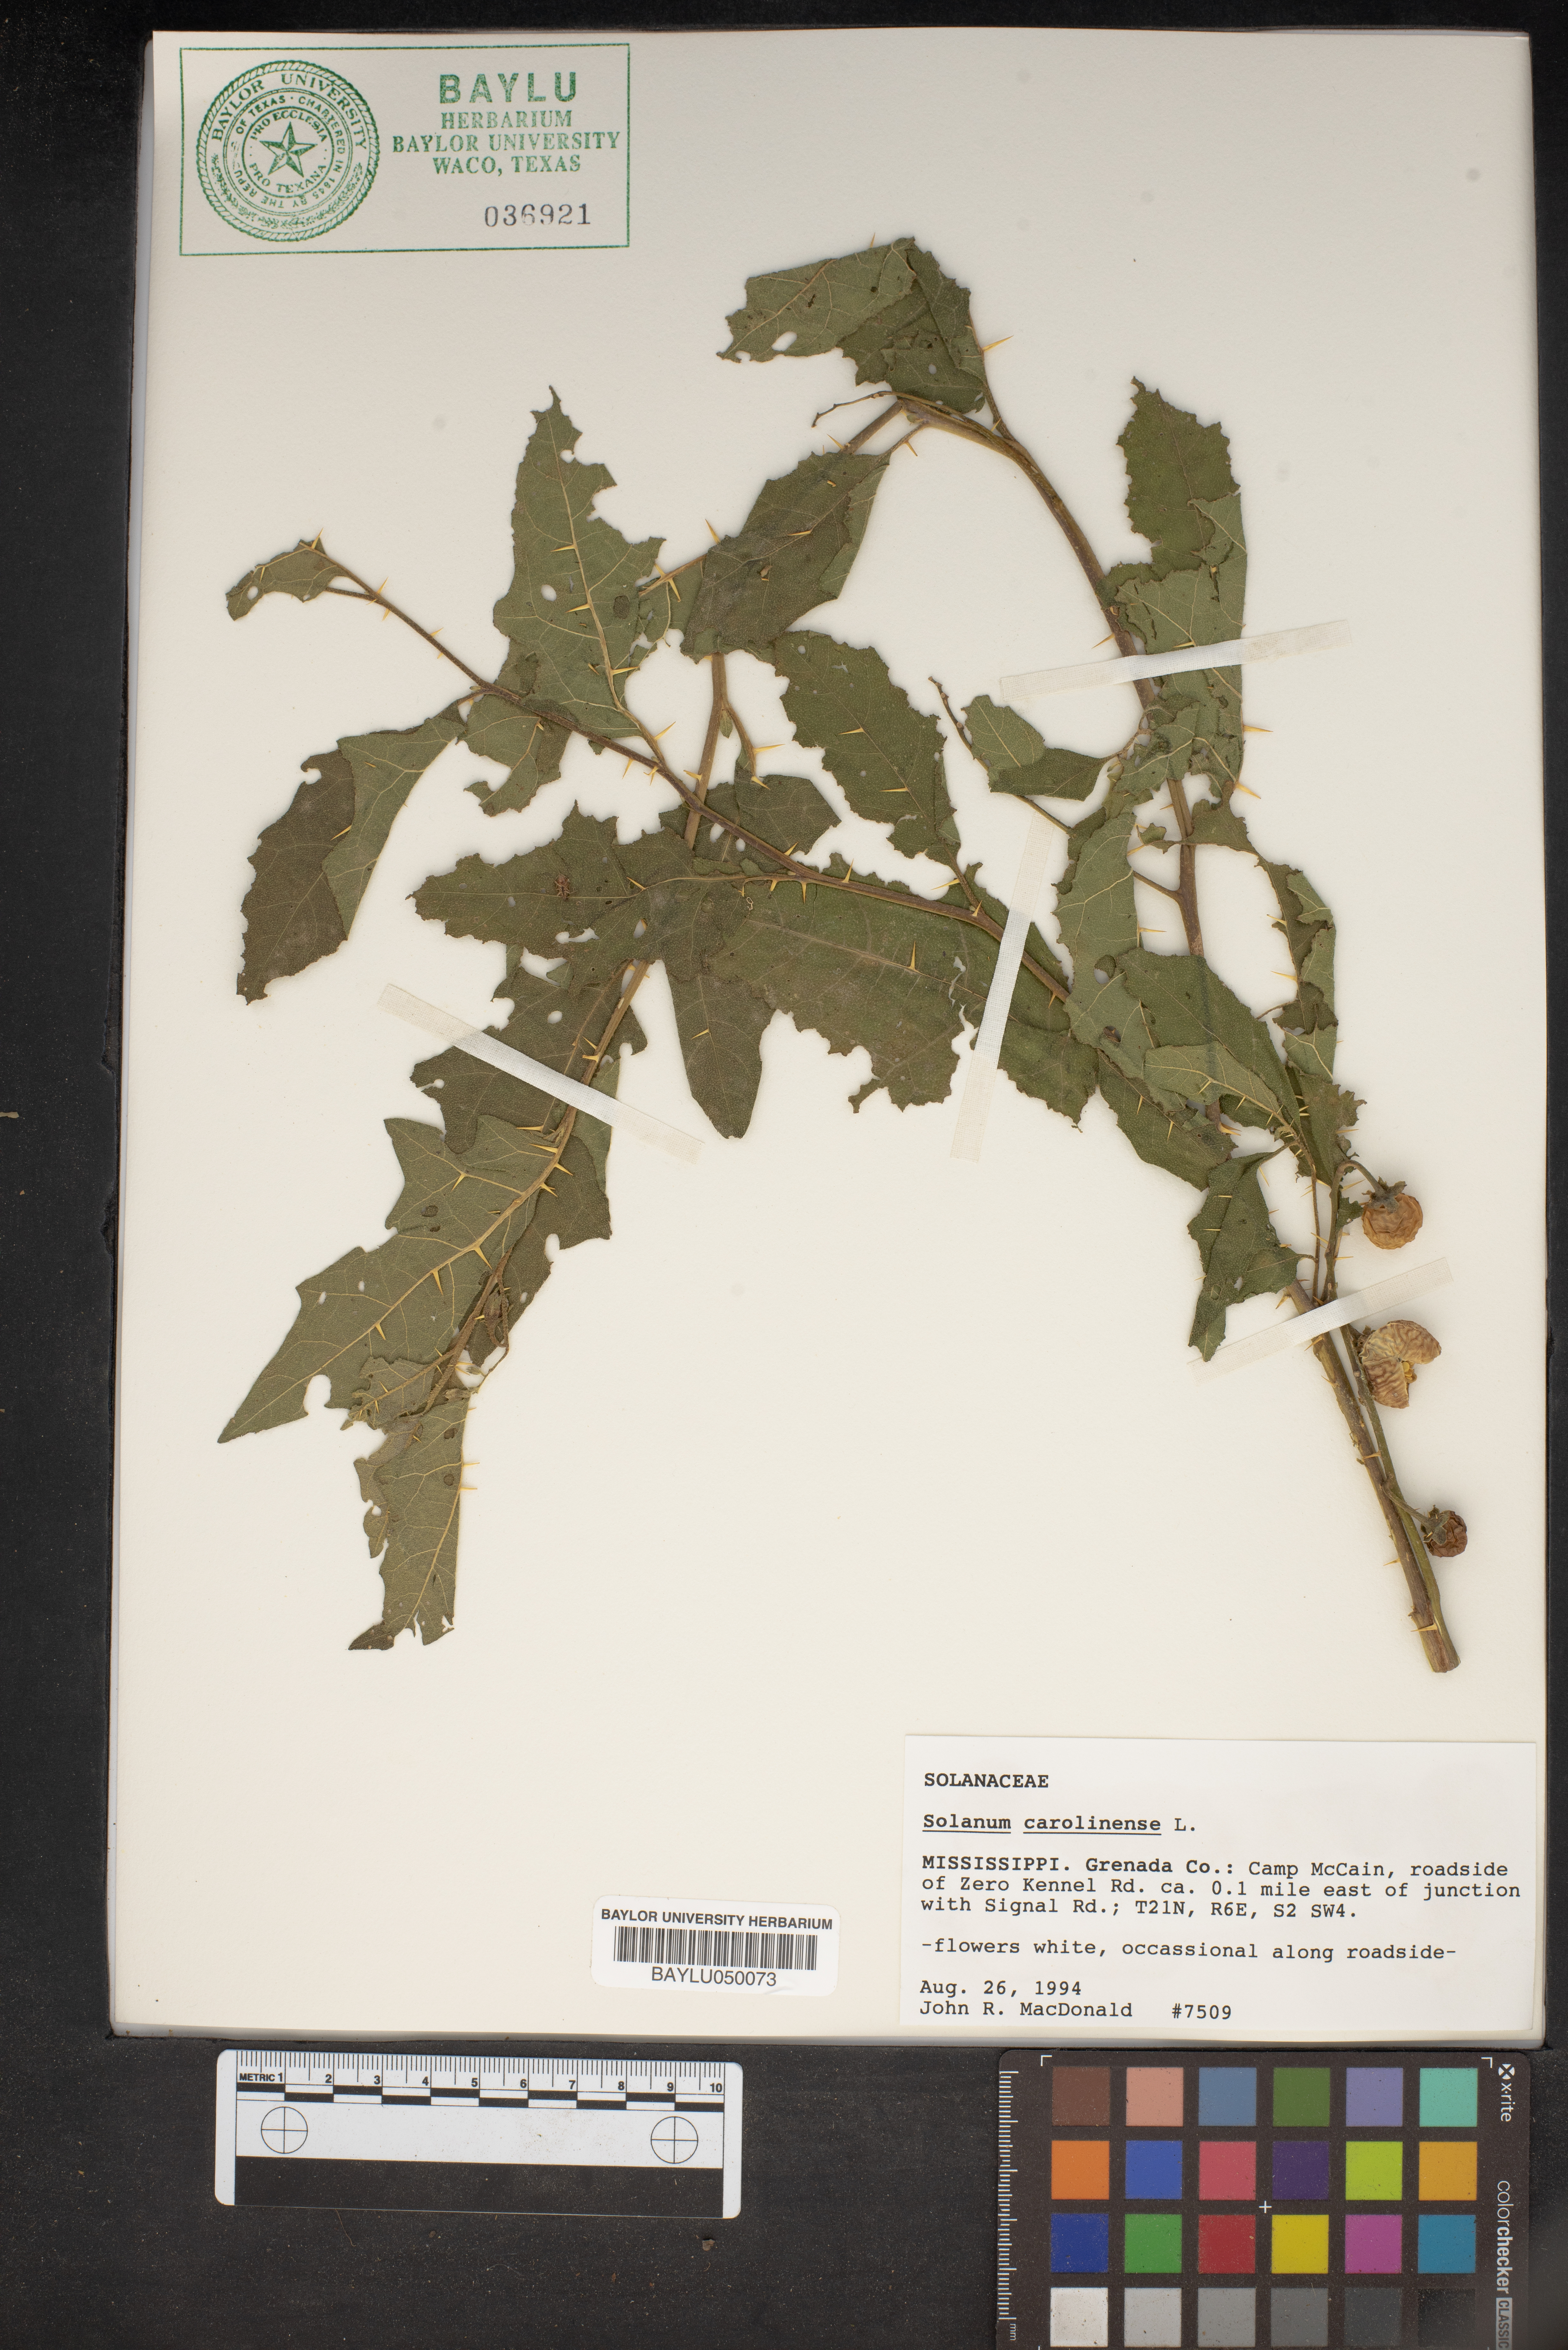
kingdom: Plantae
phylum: Tracheophyta
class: Magnoliopsida
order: Solanales
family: Solanaceae
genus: Solanum
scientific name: Solanum carolinense
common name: Horse-nettle
